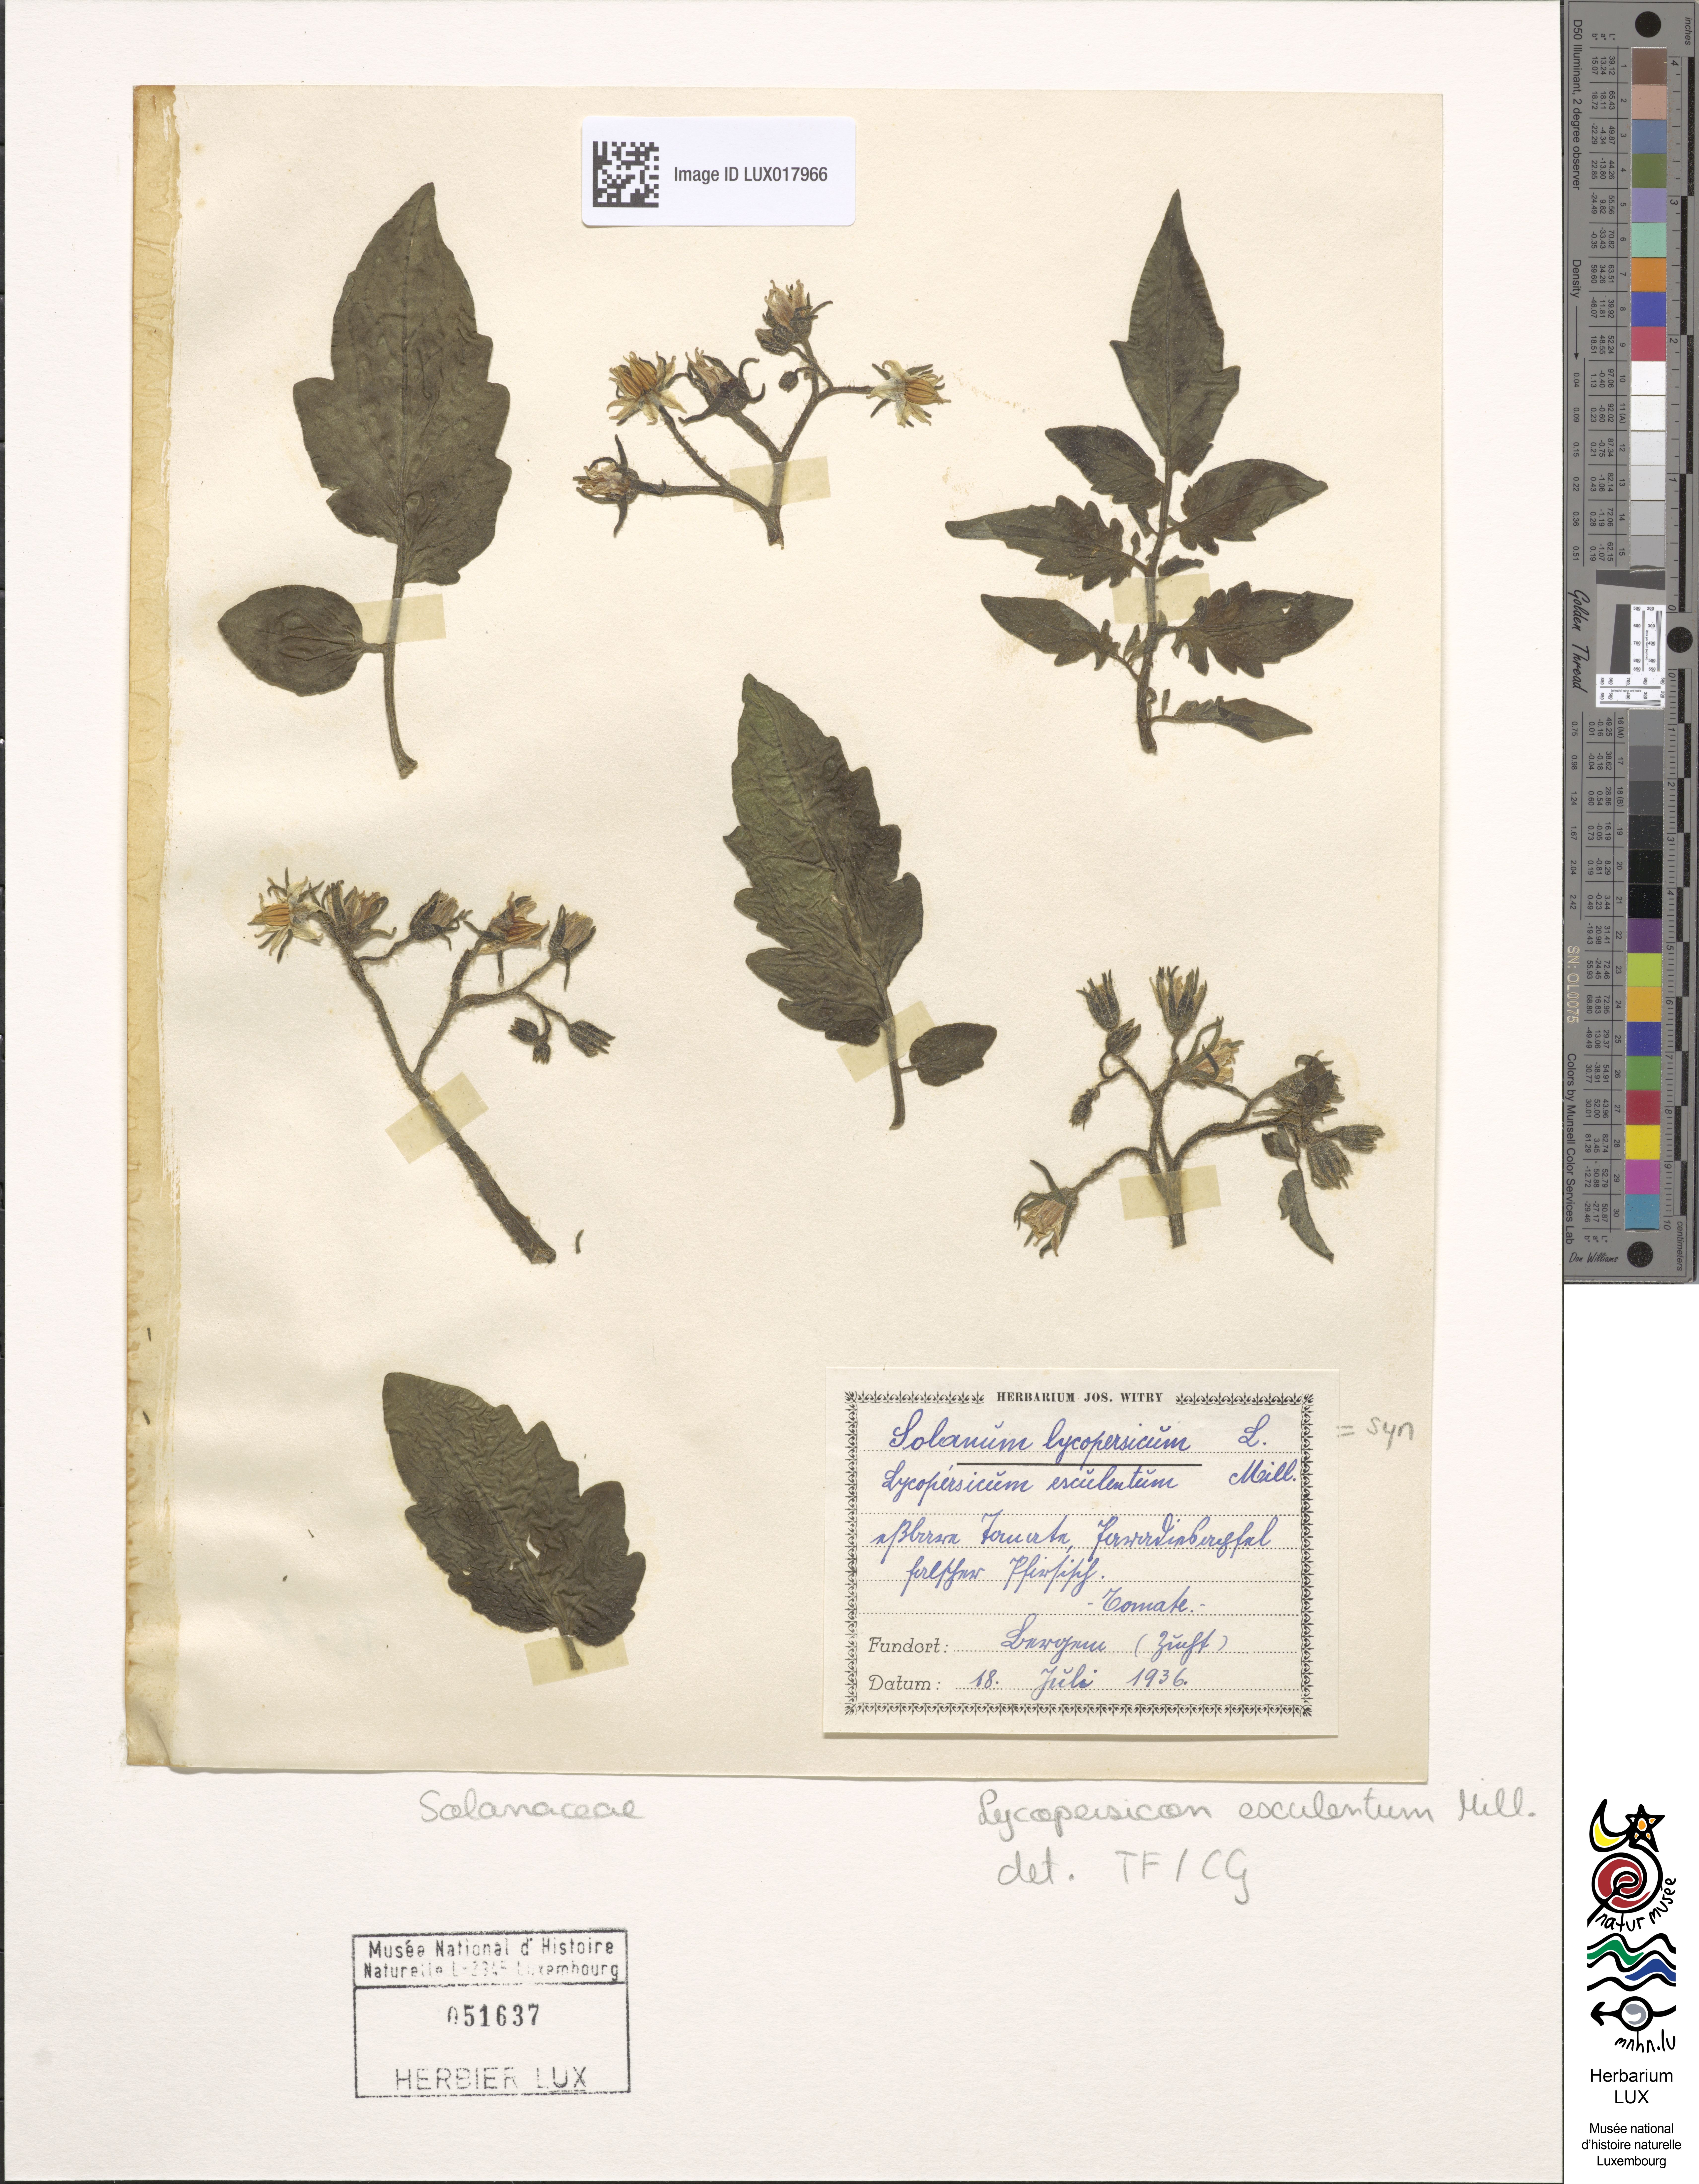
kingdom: Plantae
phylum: Tracheophyta
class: Magnoliopsida
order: Solanales
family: Solanaceae
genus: Solanum
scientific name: Solanum
